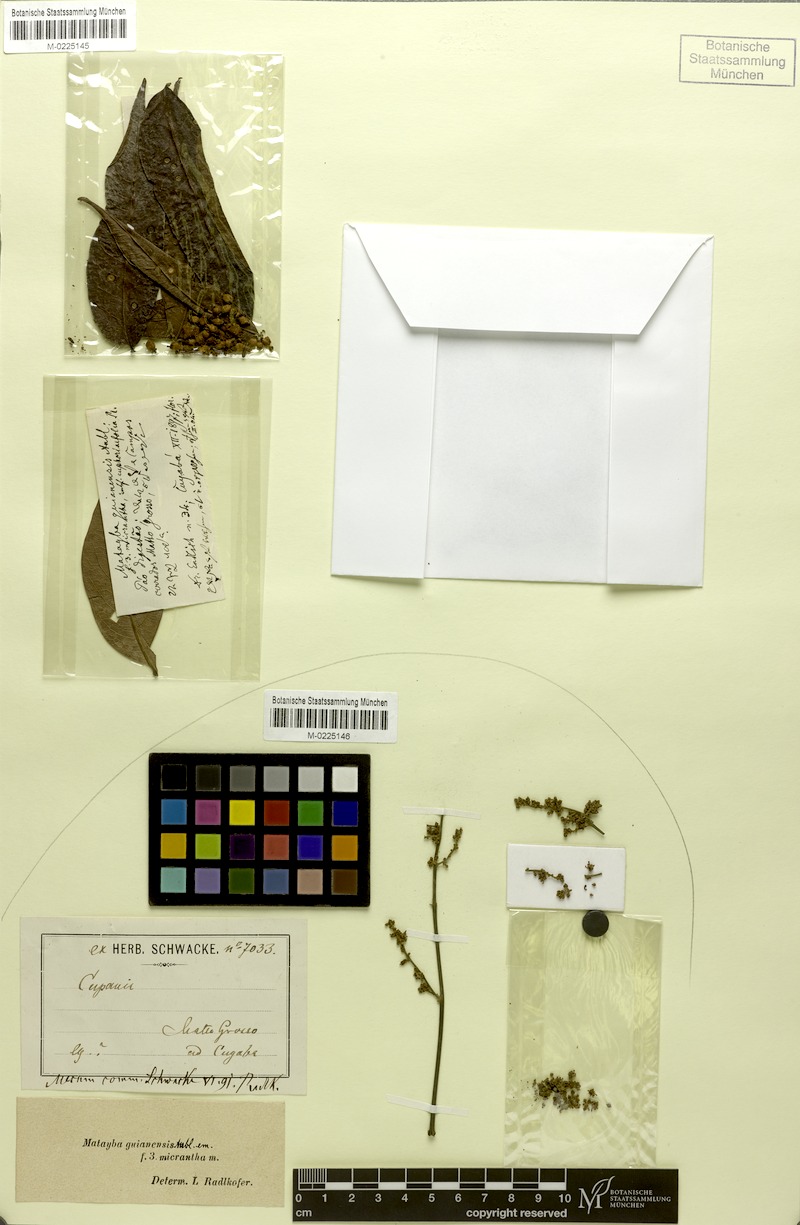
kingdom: Plantae
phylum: Tracheophyta
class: Magnoliopsida
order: Sapindales
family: Sapindaceae
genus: Matayba
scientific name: Matayba guianensis
